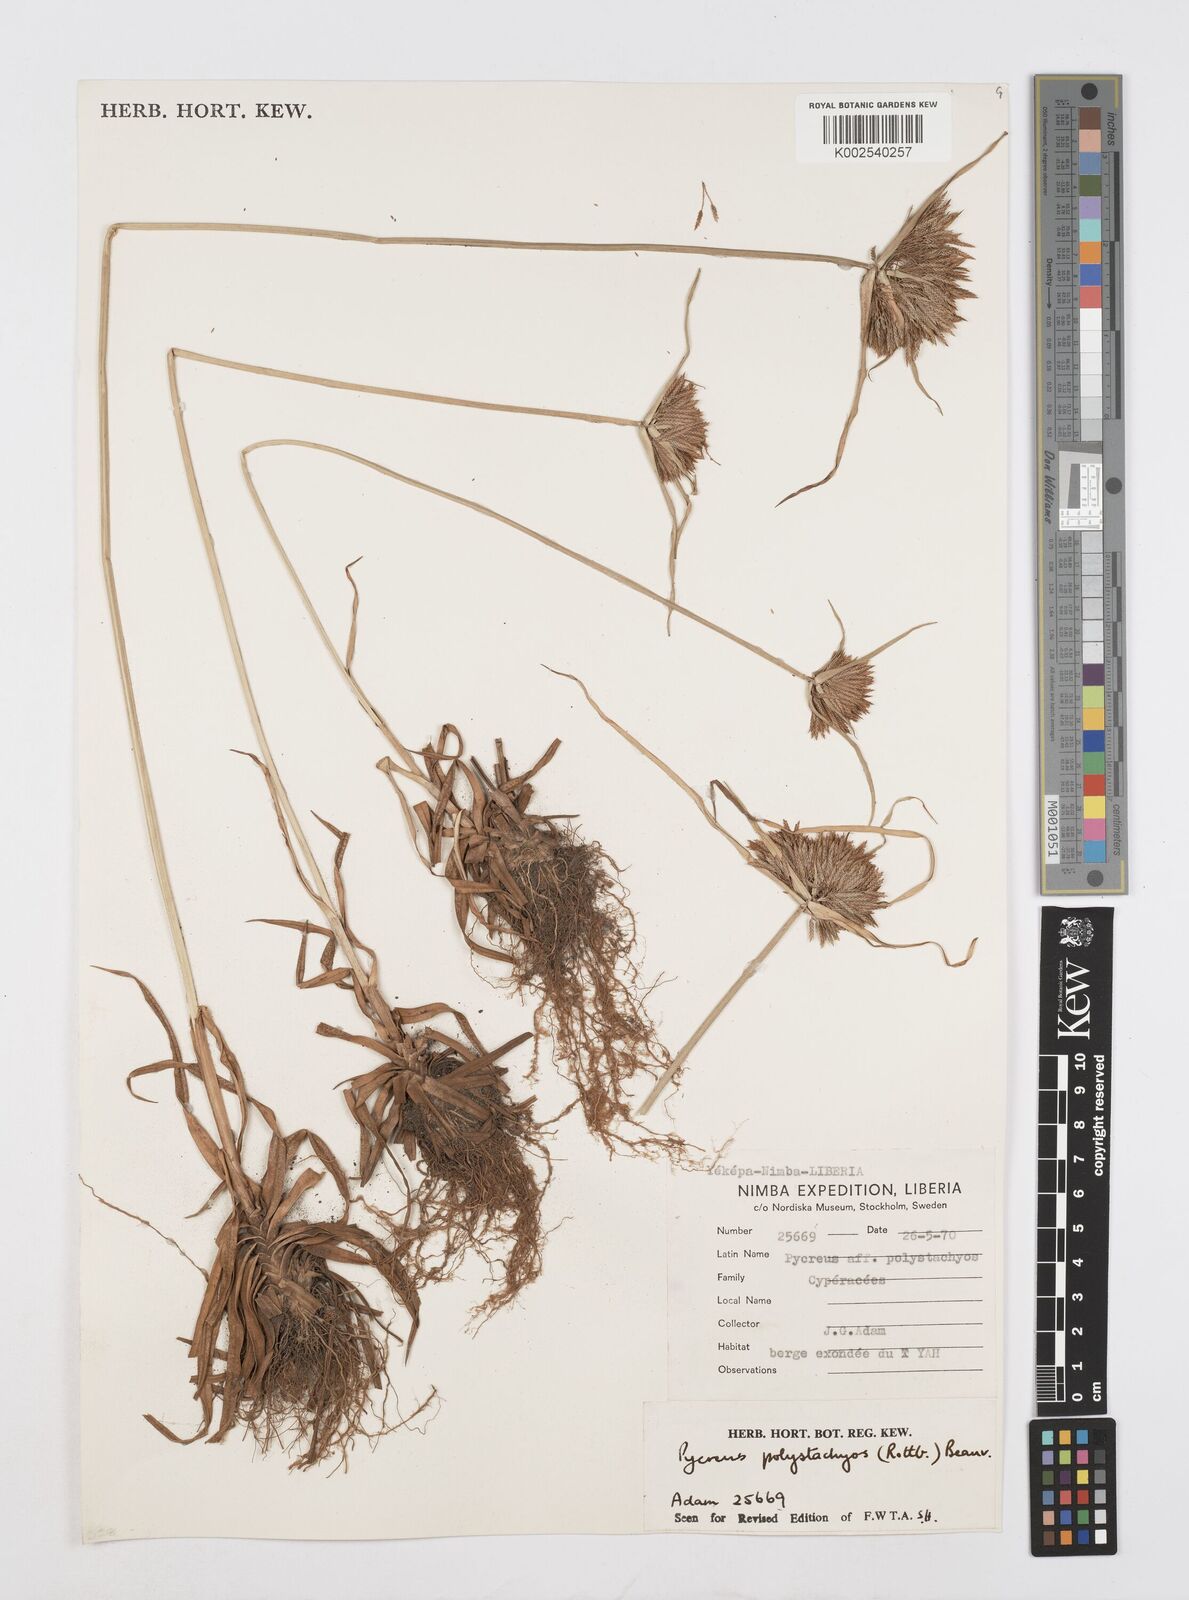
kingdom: Plantae
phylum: Tracheophyta
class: Liliopsida
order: Poales
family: Cyperaceae
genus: Cyperus
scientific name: Cyperus polystachyos
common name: Bunchy flat sedge
